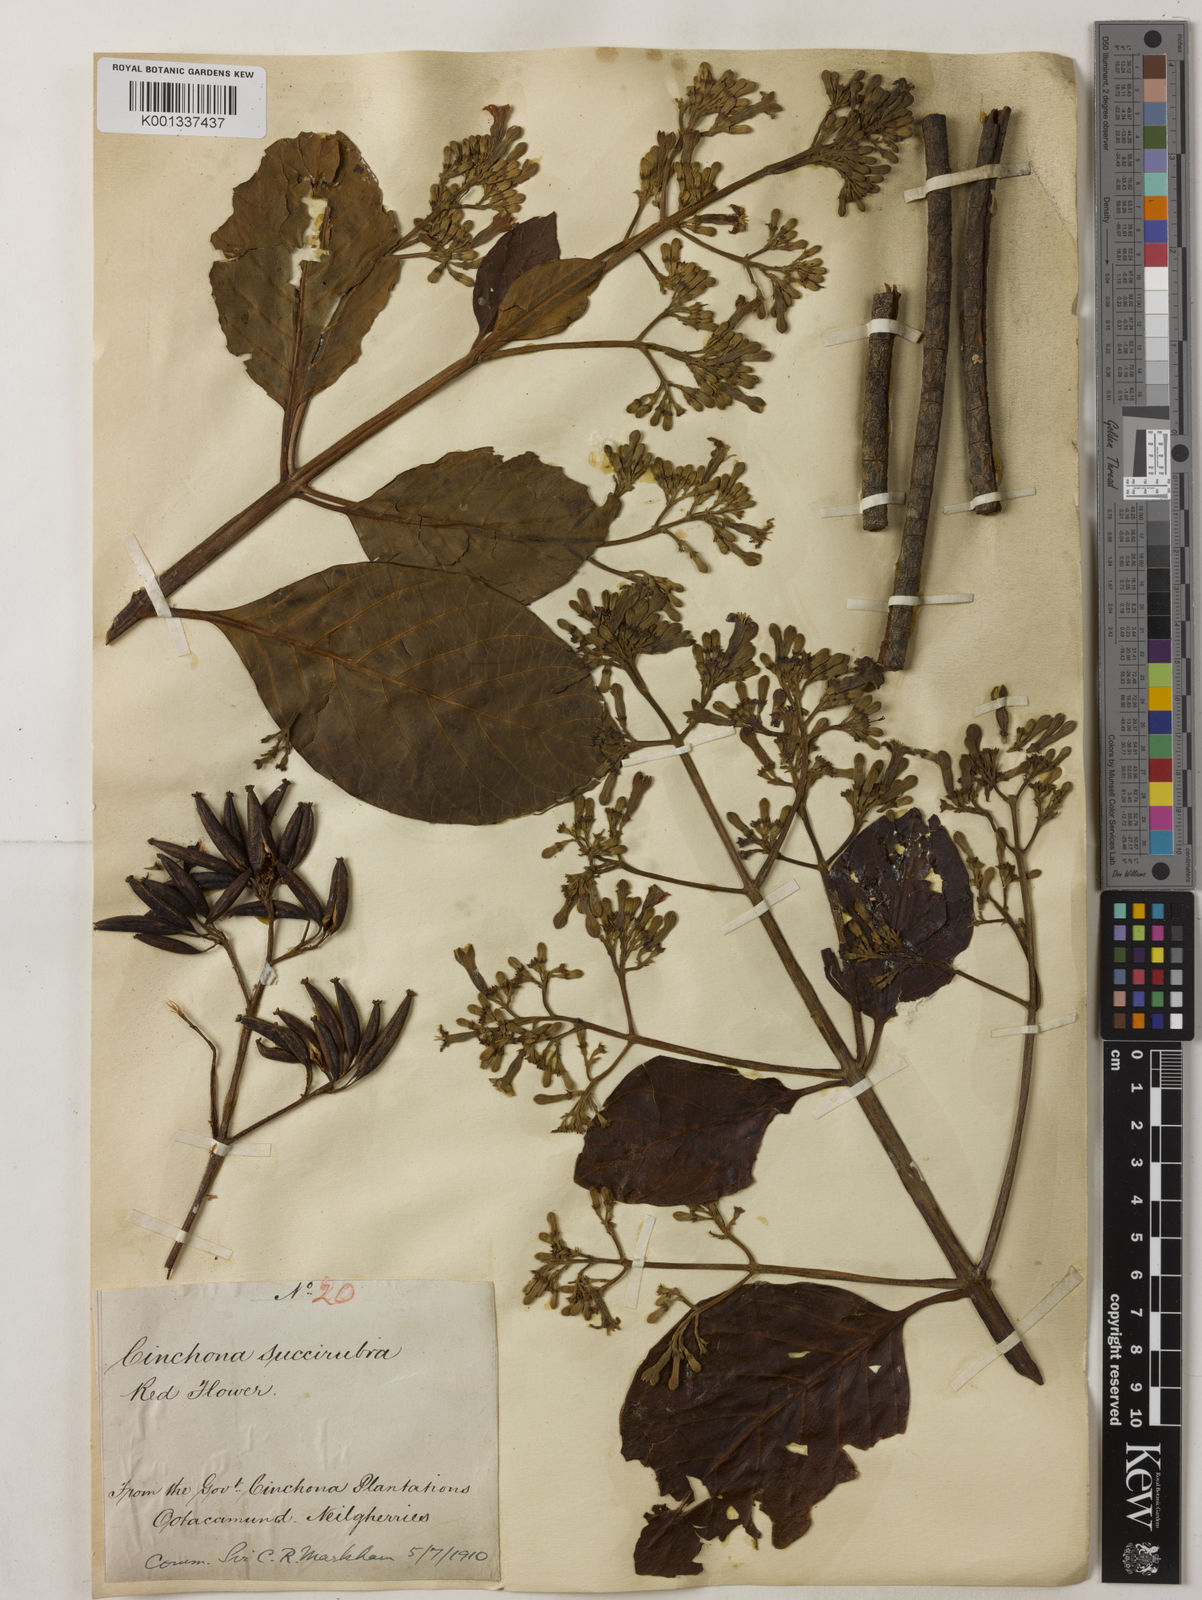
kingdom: Plantae
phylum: Tracheophyta
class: Magnoliopsida
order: Gentianales
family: Rubiaceae
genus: Cinchona
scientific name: Cinchona pubescens
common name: Quinine
